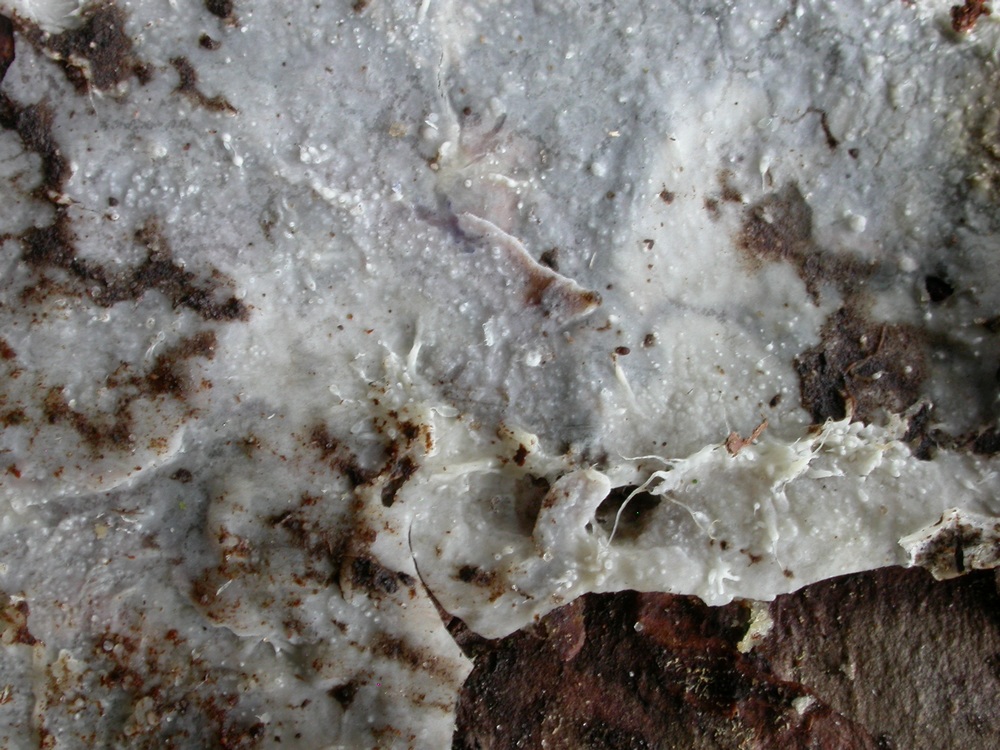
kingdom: Fungi
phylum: Basidiomycota
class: Agaricomycetes
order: Polyporales
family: Phanerochaetaceae
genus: Phanerochaete
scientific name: Phanerochaete velutina
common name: dunet randtråd
